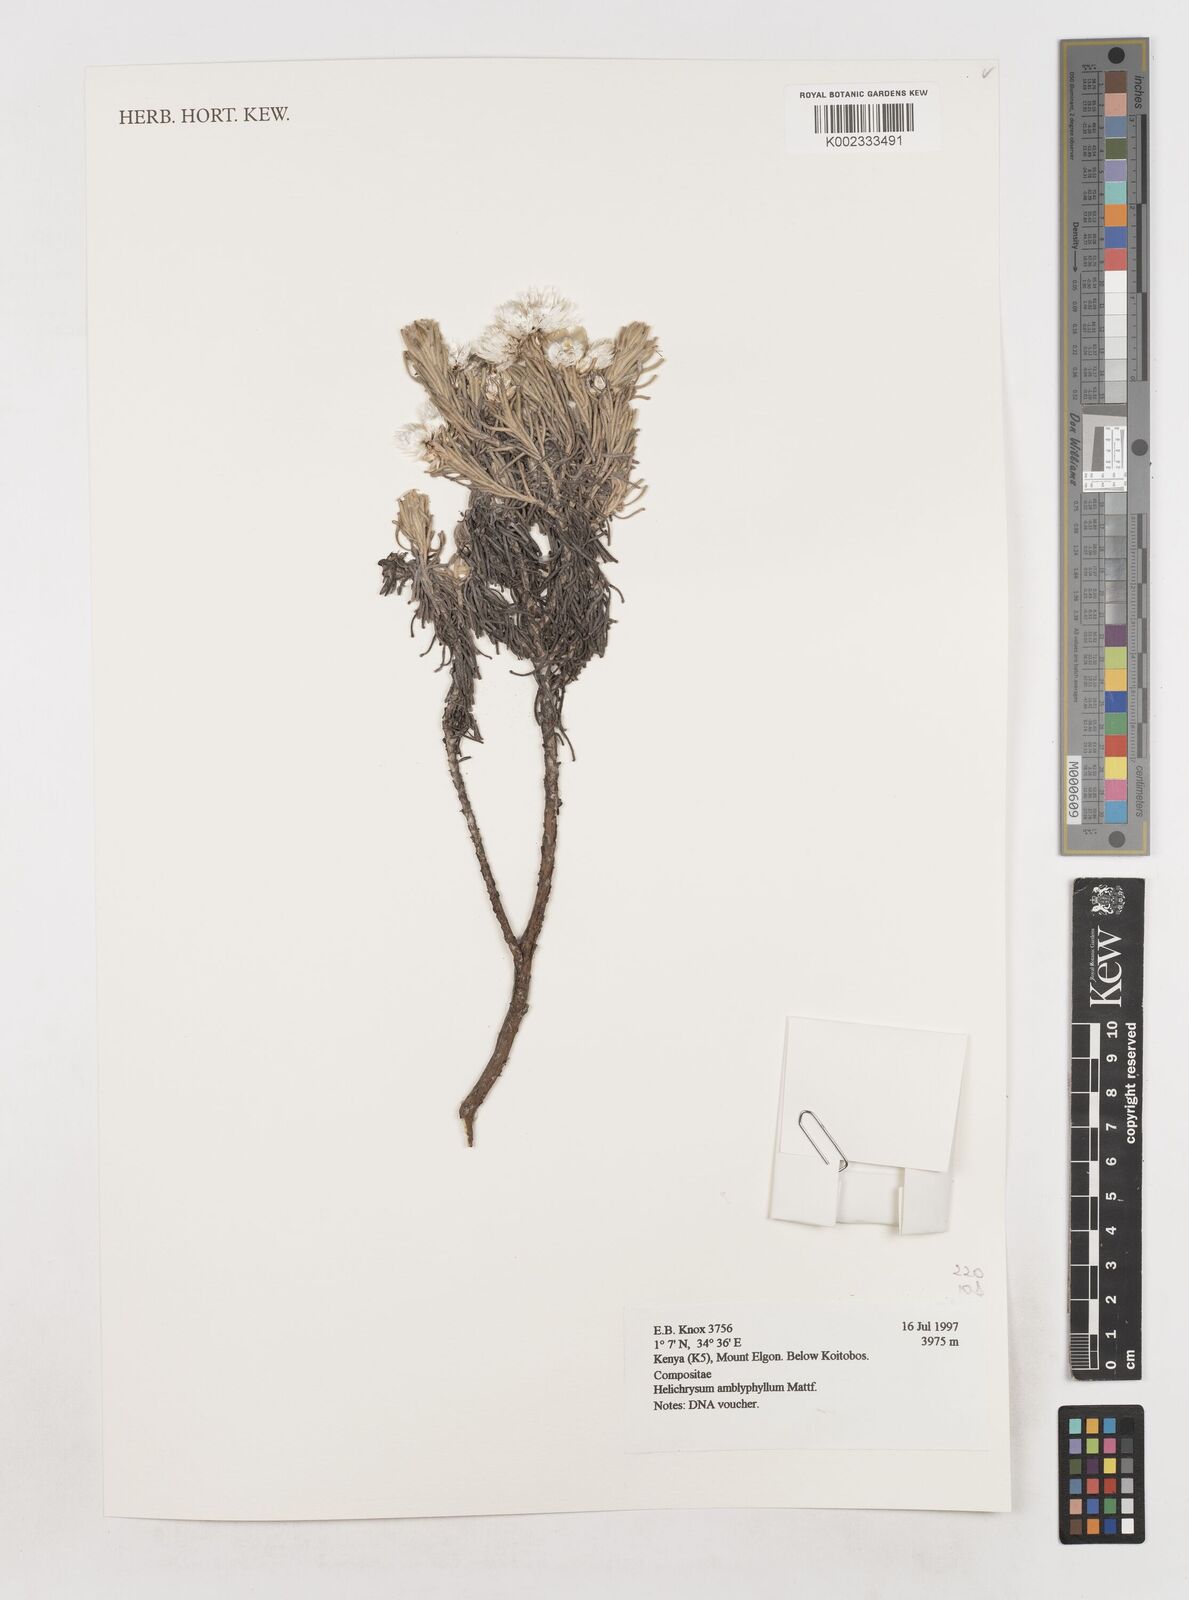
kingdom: Plantae
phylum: Tracheophyta
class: Magnoliopsida
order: Asterales
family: Asteraceae
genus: Helichrysum
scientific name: Helichrysum amblyphyllum
